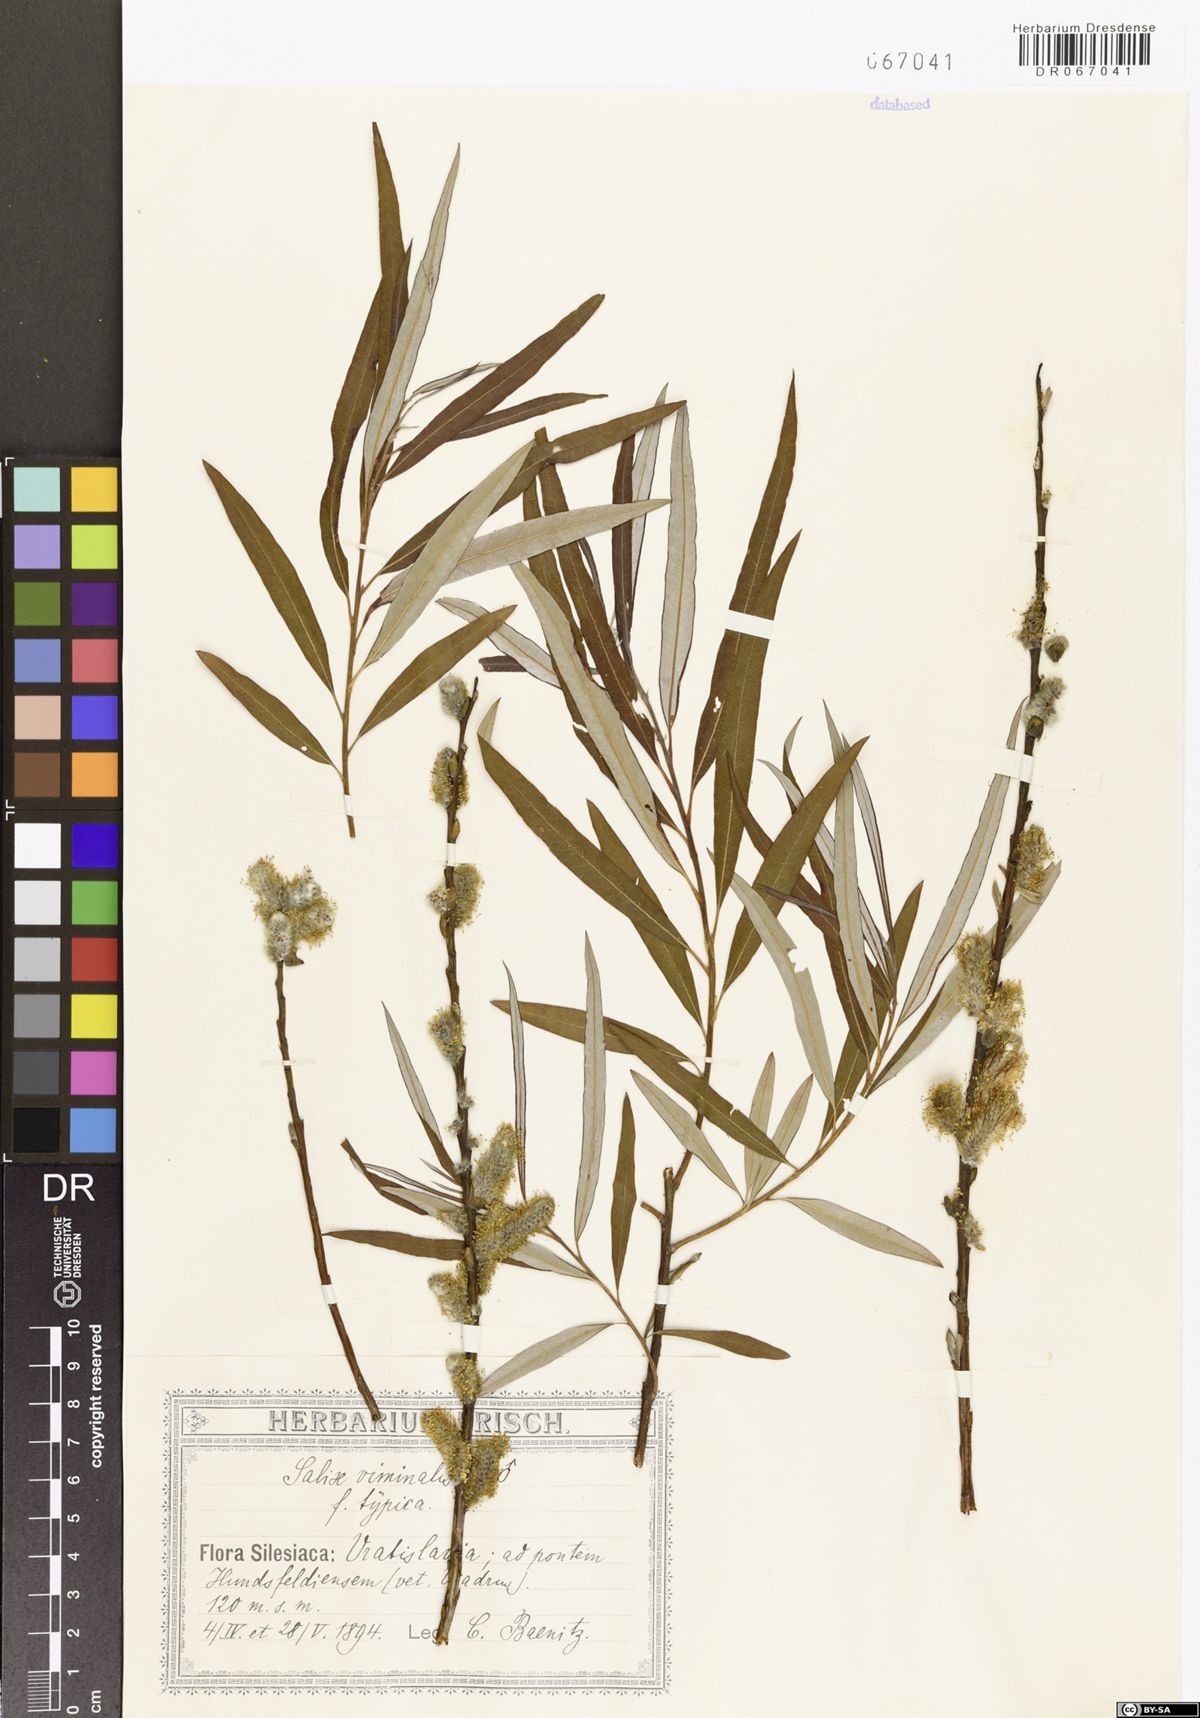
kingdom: Plantae
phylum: Tracheophyta
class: Magnoliopsida
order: Malpighiales
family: Salicaceae
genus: Salix
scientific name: Salix viminalis
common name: Osier
